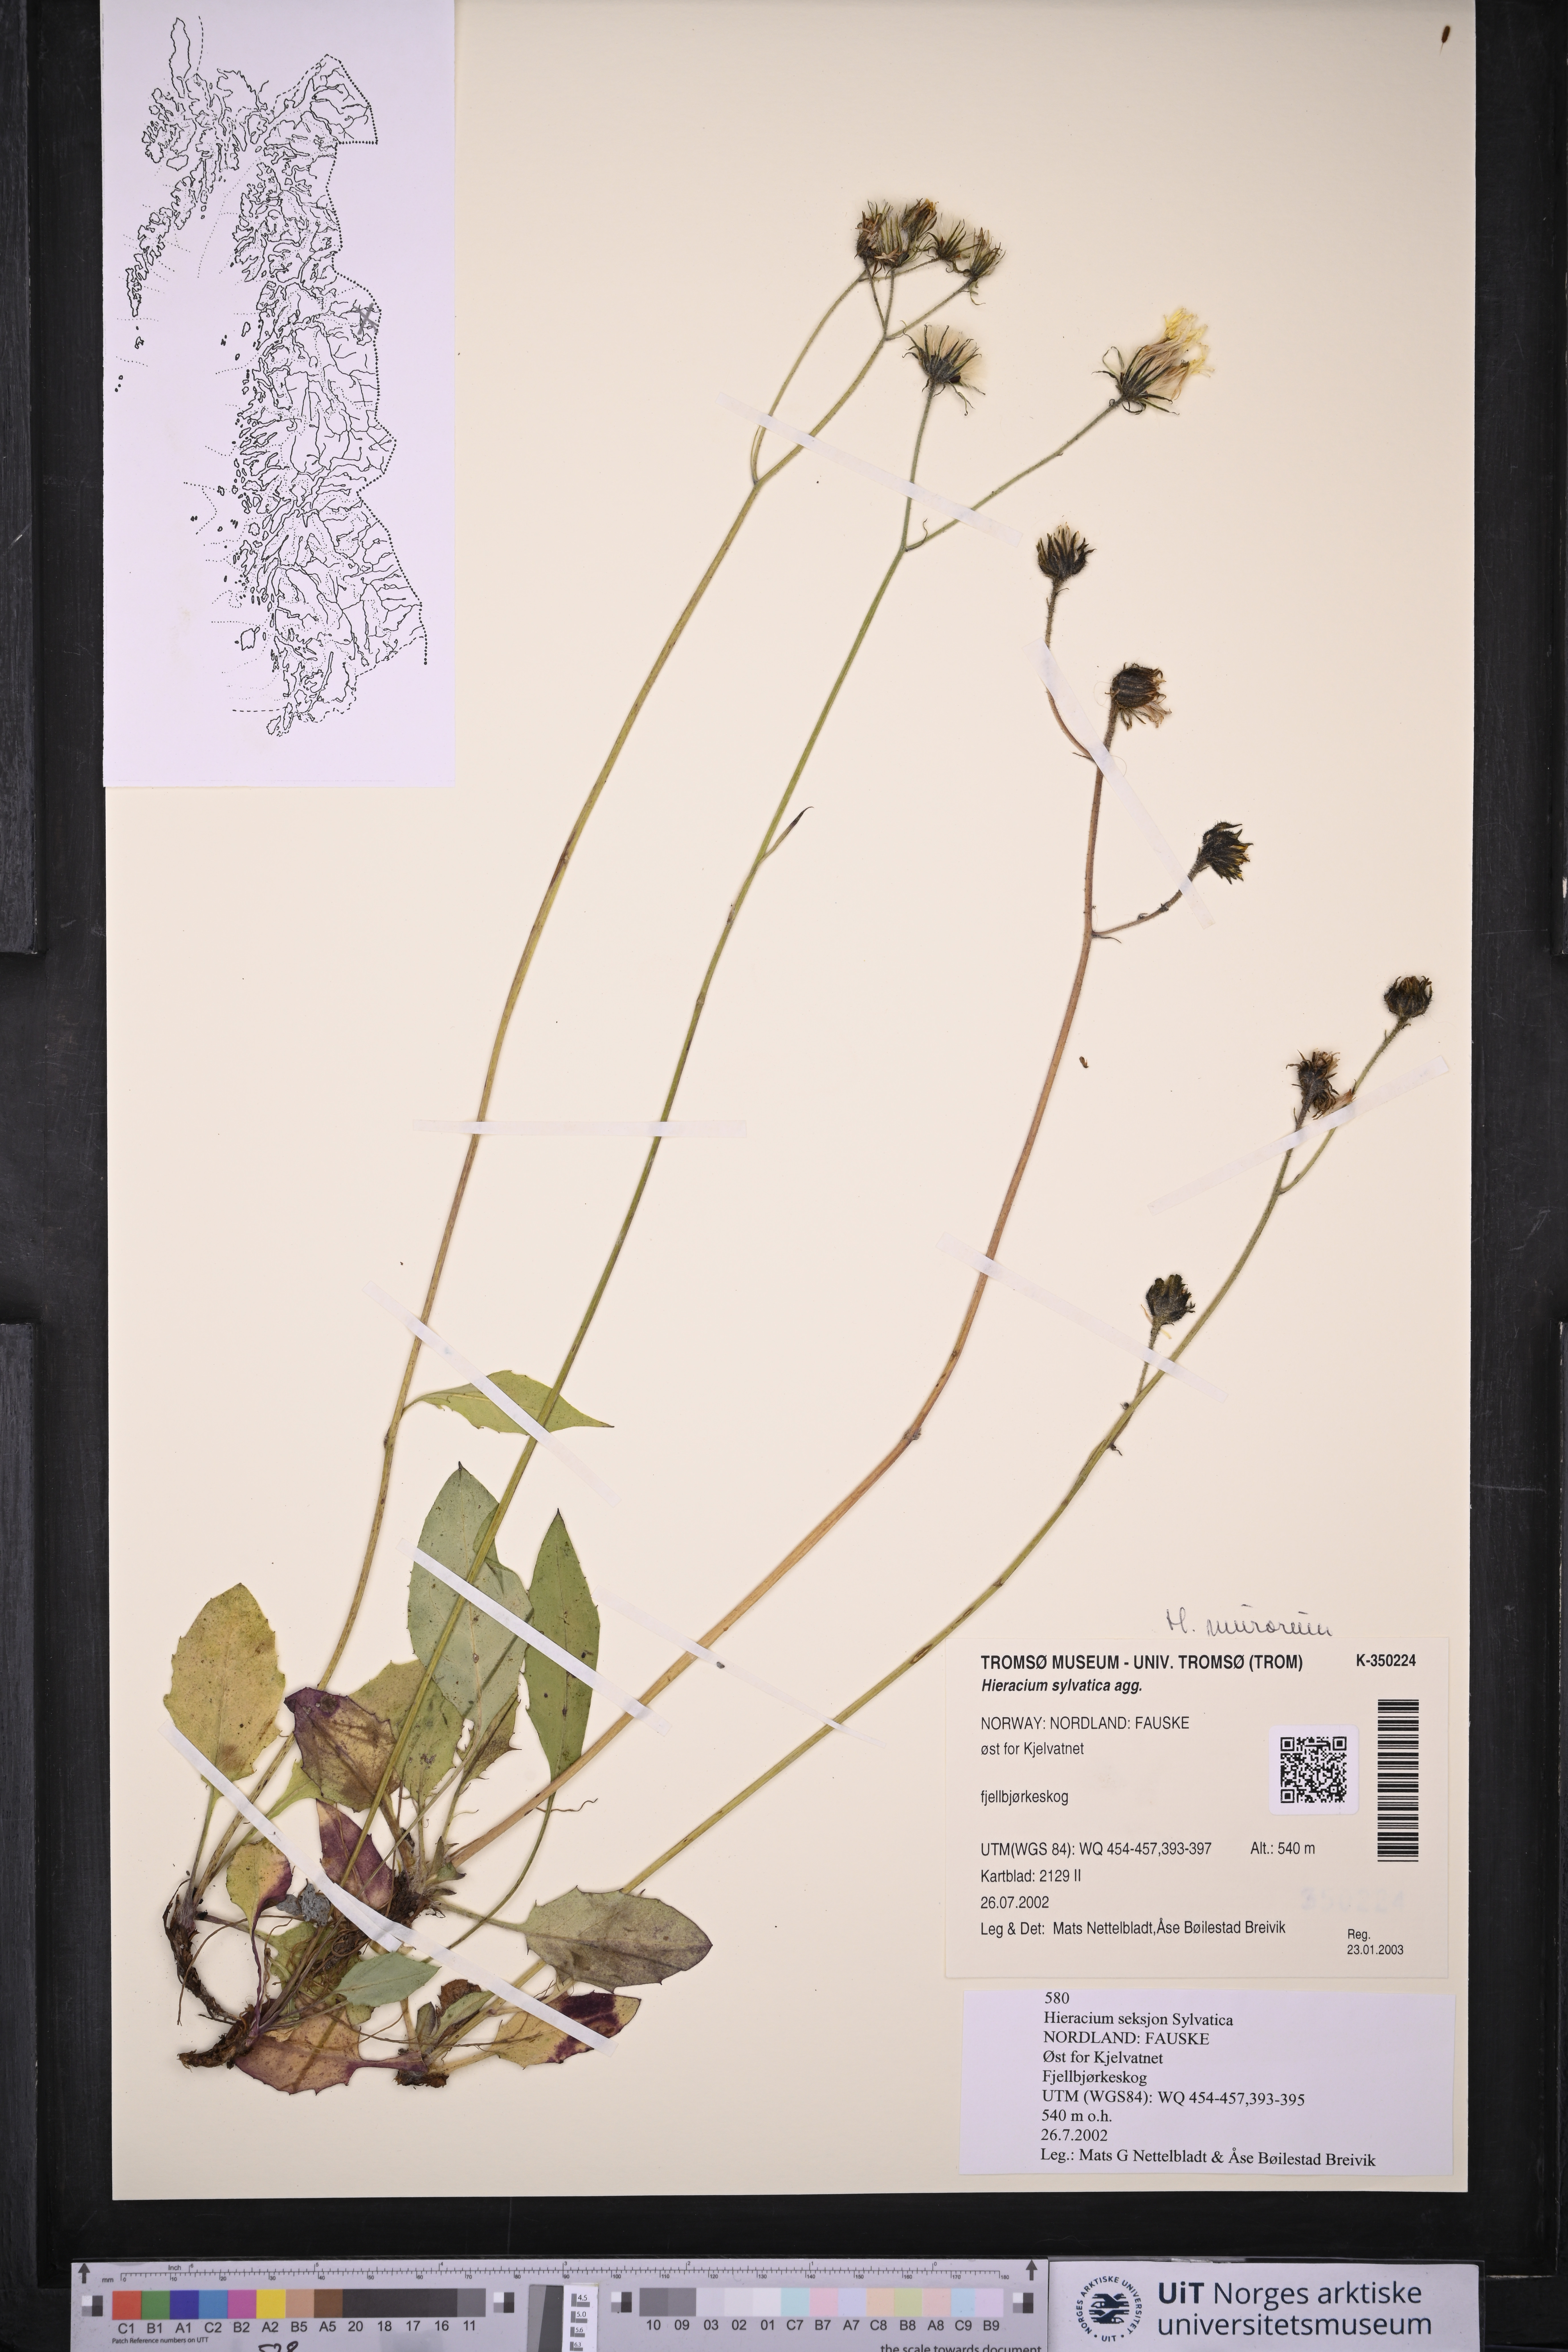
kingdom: Plantae
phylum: Tracheophyta
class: Magnoliopsida
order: Asterales
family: Asteraceae
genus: Hieracium
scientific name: Hieracium
